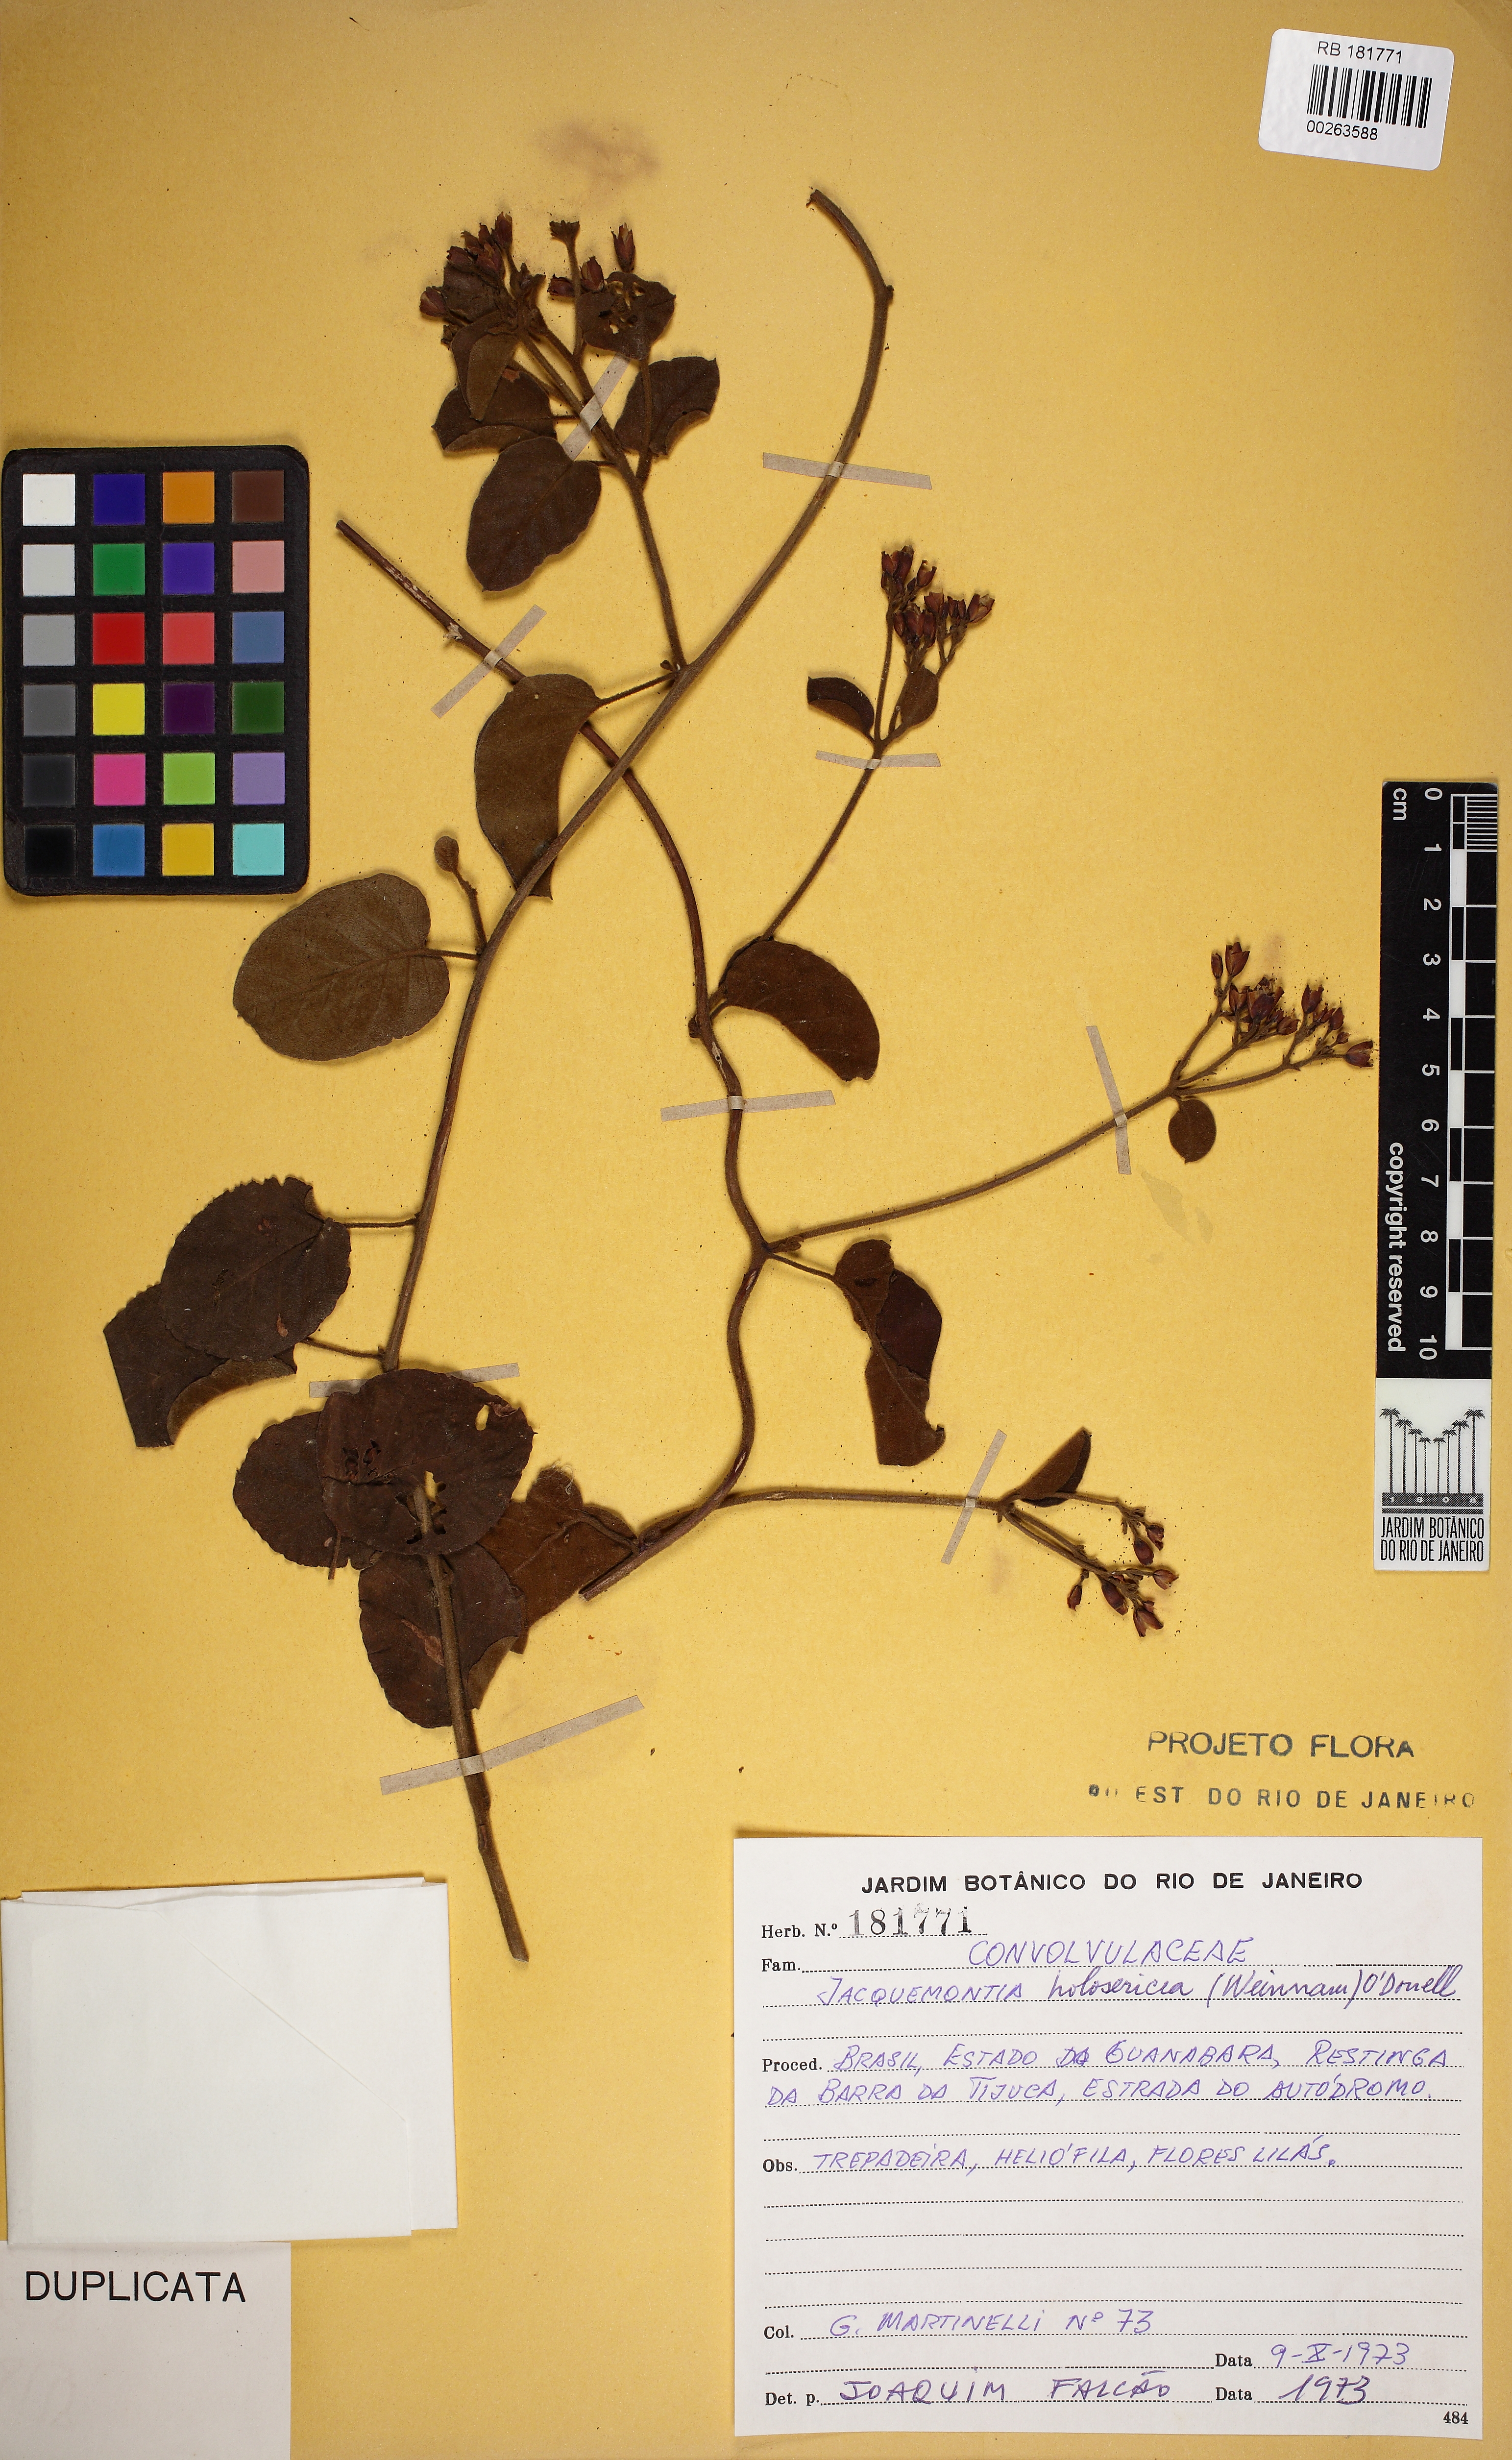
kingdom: Plantae
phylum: Tracheophyta
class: Magnoliopsida
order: Solanales
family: Convolvulaceae
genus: Jacquemontia
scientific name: Jacquemontia holosericea
